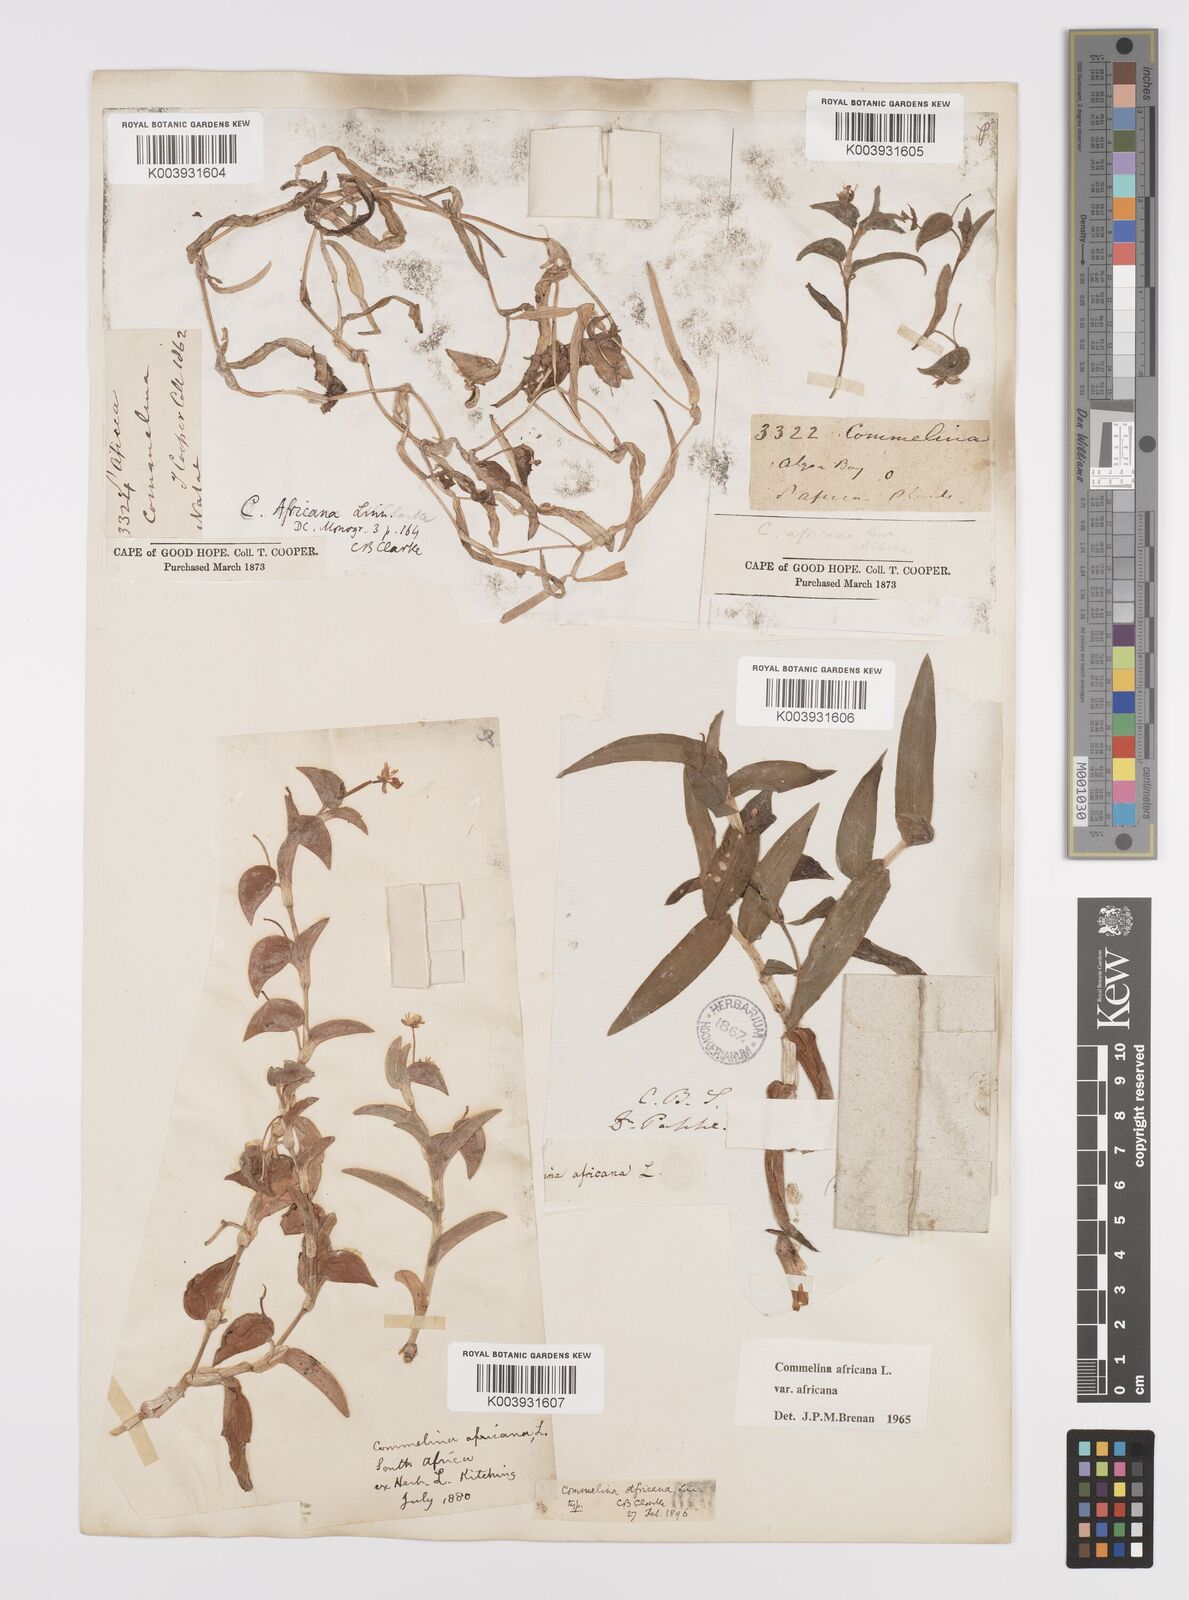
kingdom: Plantae
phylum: Tracheophyta
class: Liliopsida
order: Commelinales
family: Commelinaceae
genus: Commelina
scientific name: Commelina africana
